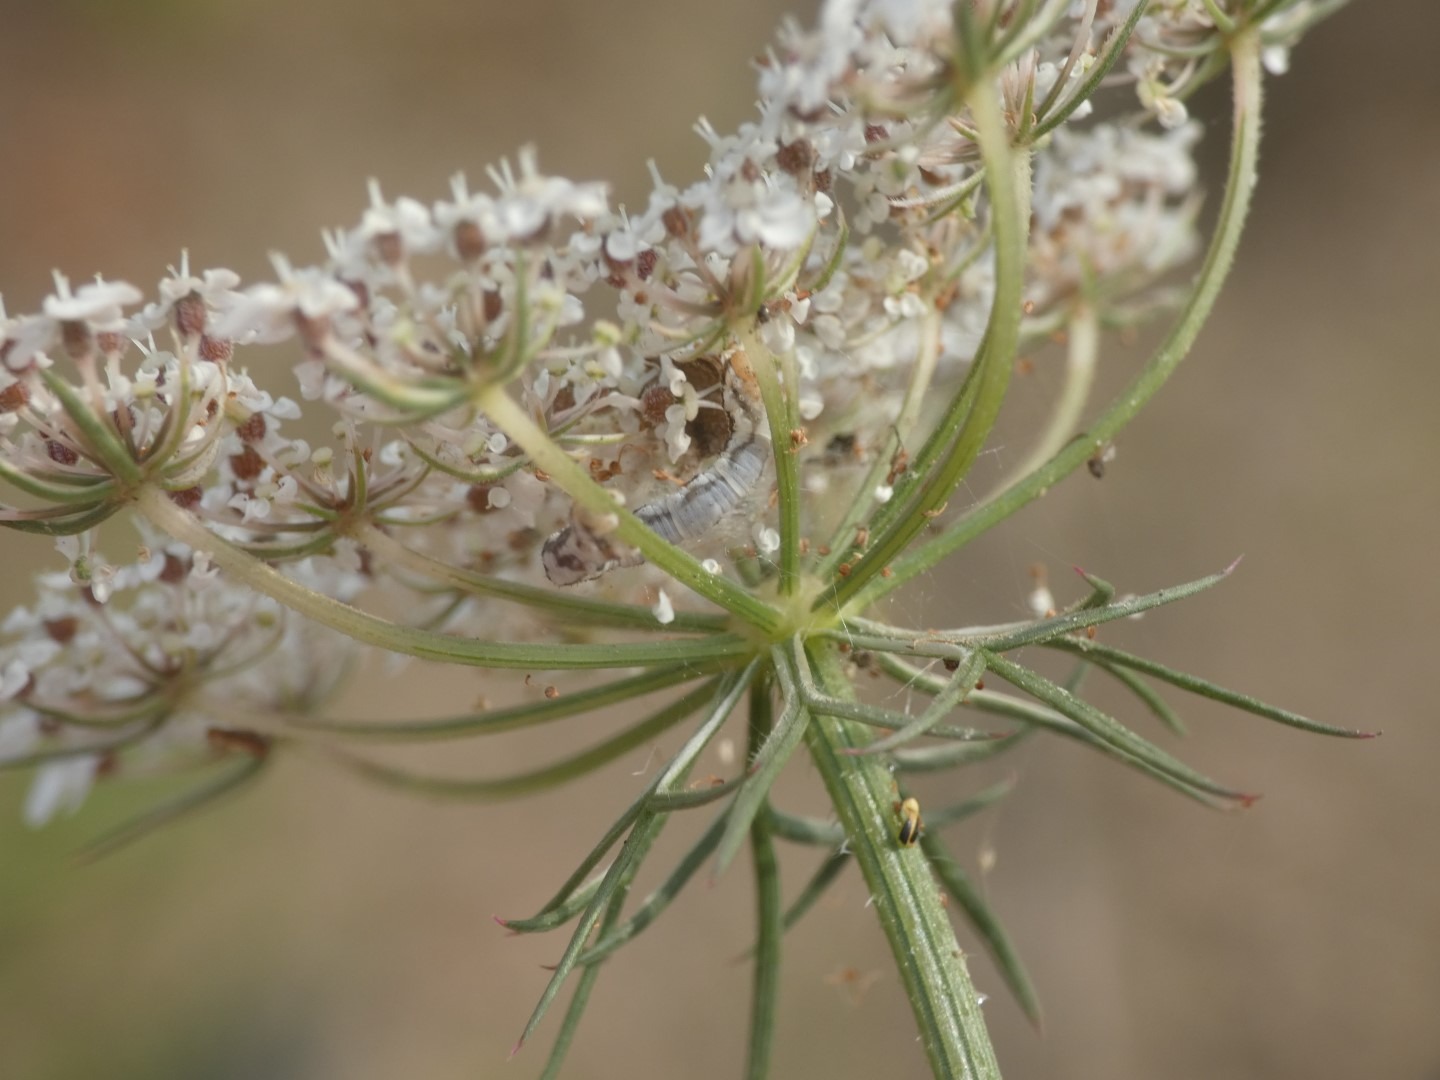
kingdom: Plantae
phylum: Tracheophyta
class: Magnoliopsida
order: Apiales
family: Apiaceae
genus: Daucus
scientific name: Daucus carota
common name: Vild gulerod
